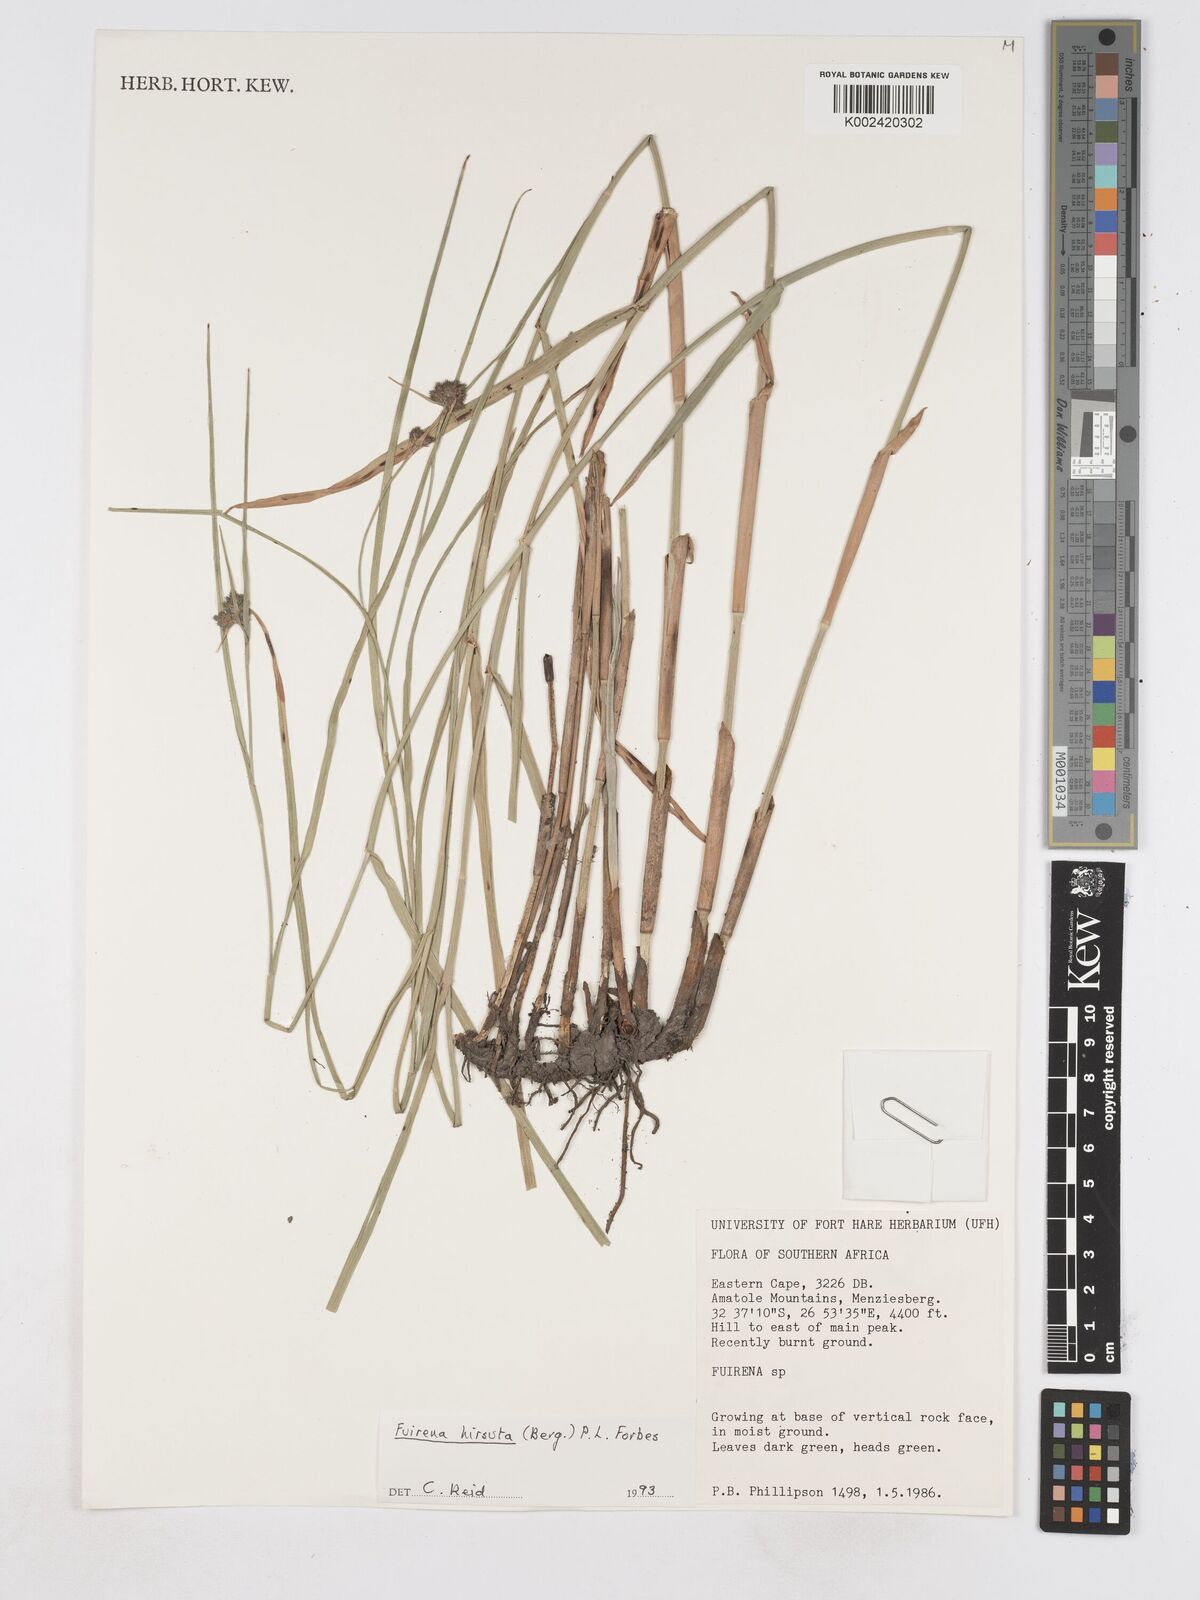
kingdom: Plantae
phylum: Tracheophyta
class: Liliopsida
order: Poales
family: Cyperaceae
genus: Fuirena
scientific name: Fuirena hirsuta
